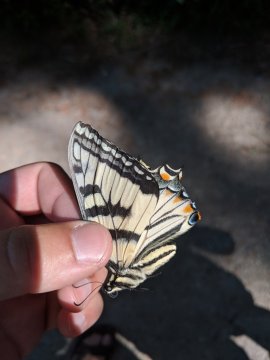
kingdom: Animalia
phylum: Arthropoda
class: Insecta
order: Lepidoptera
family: Papilionidae
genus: Papilio
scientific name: Papilio
